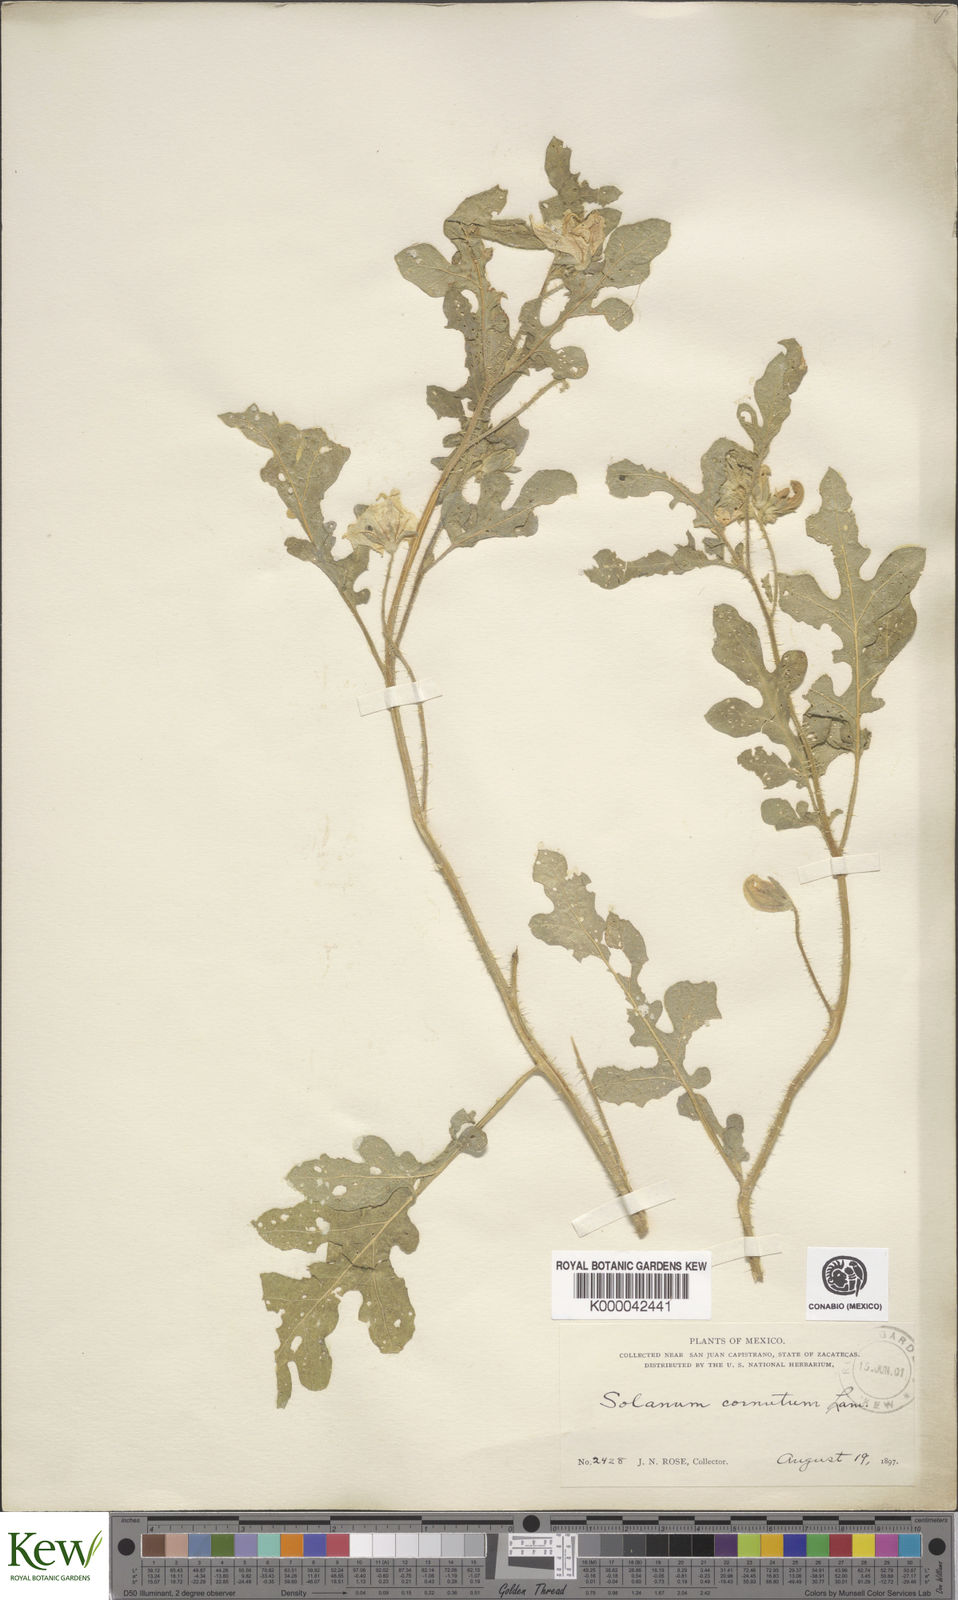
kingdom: Plantae
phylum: Tracheophyta
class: Magnoliopsida
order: Solanales
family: Solanaceae
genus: Solanum
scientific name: Solanum angustifolium
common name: Buffalobur nightshade
